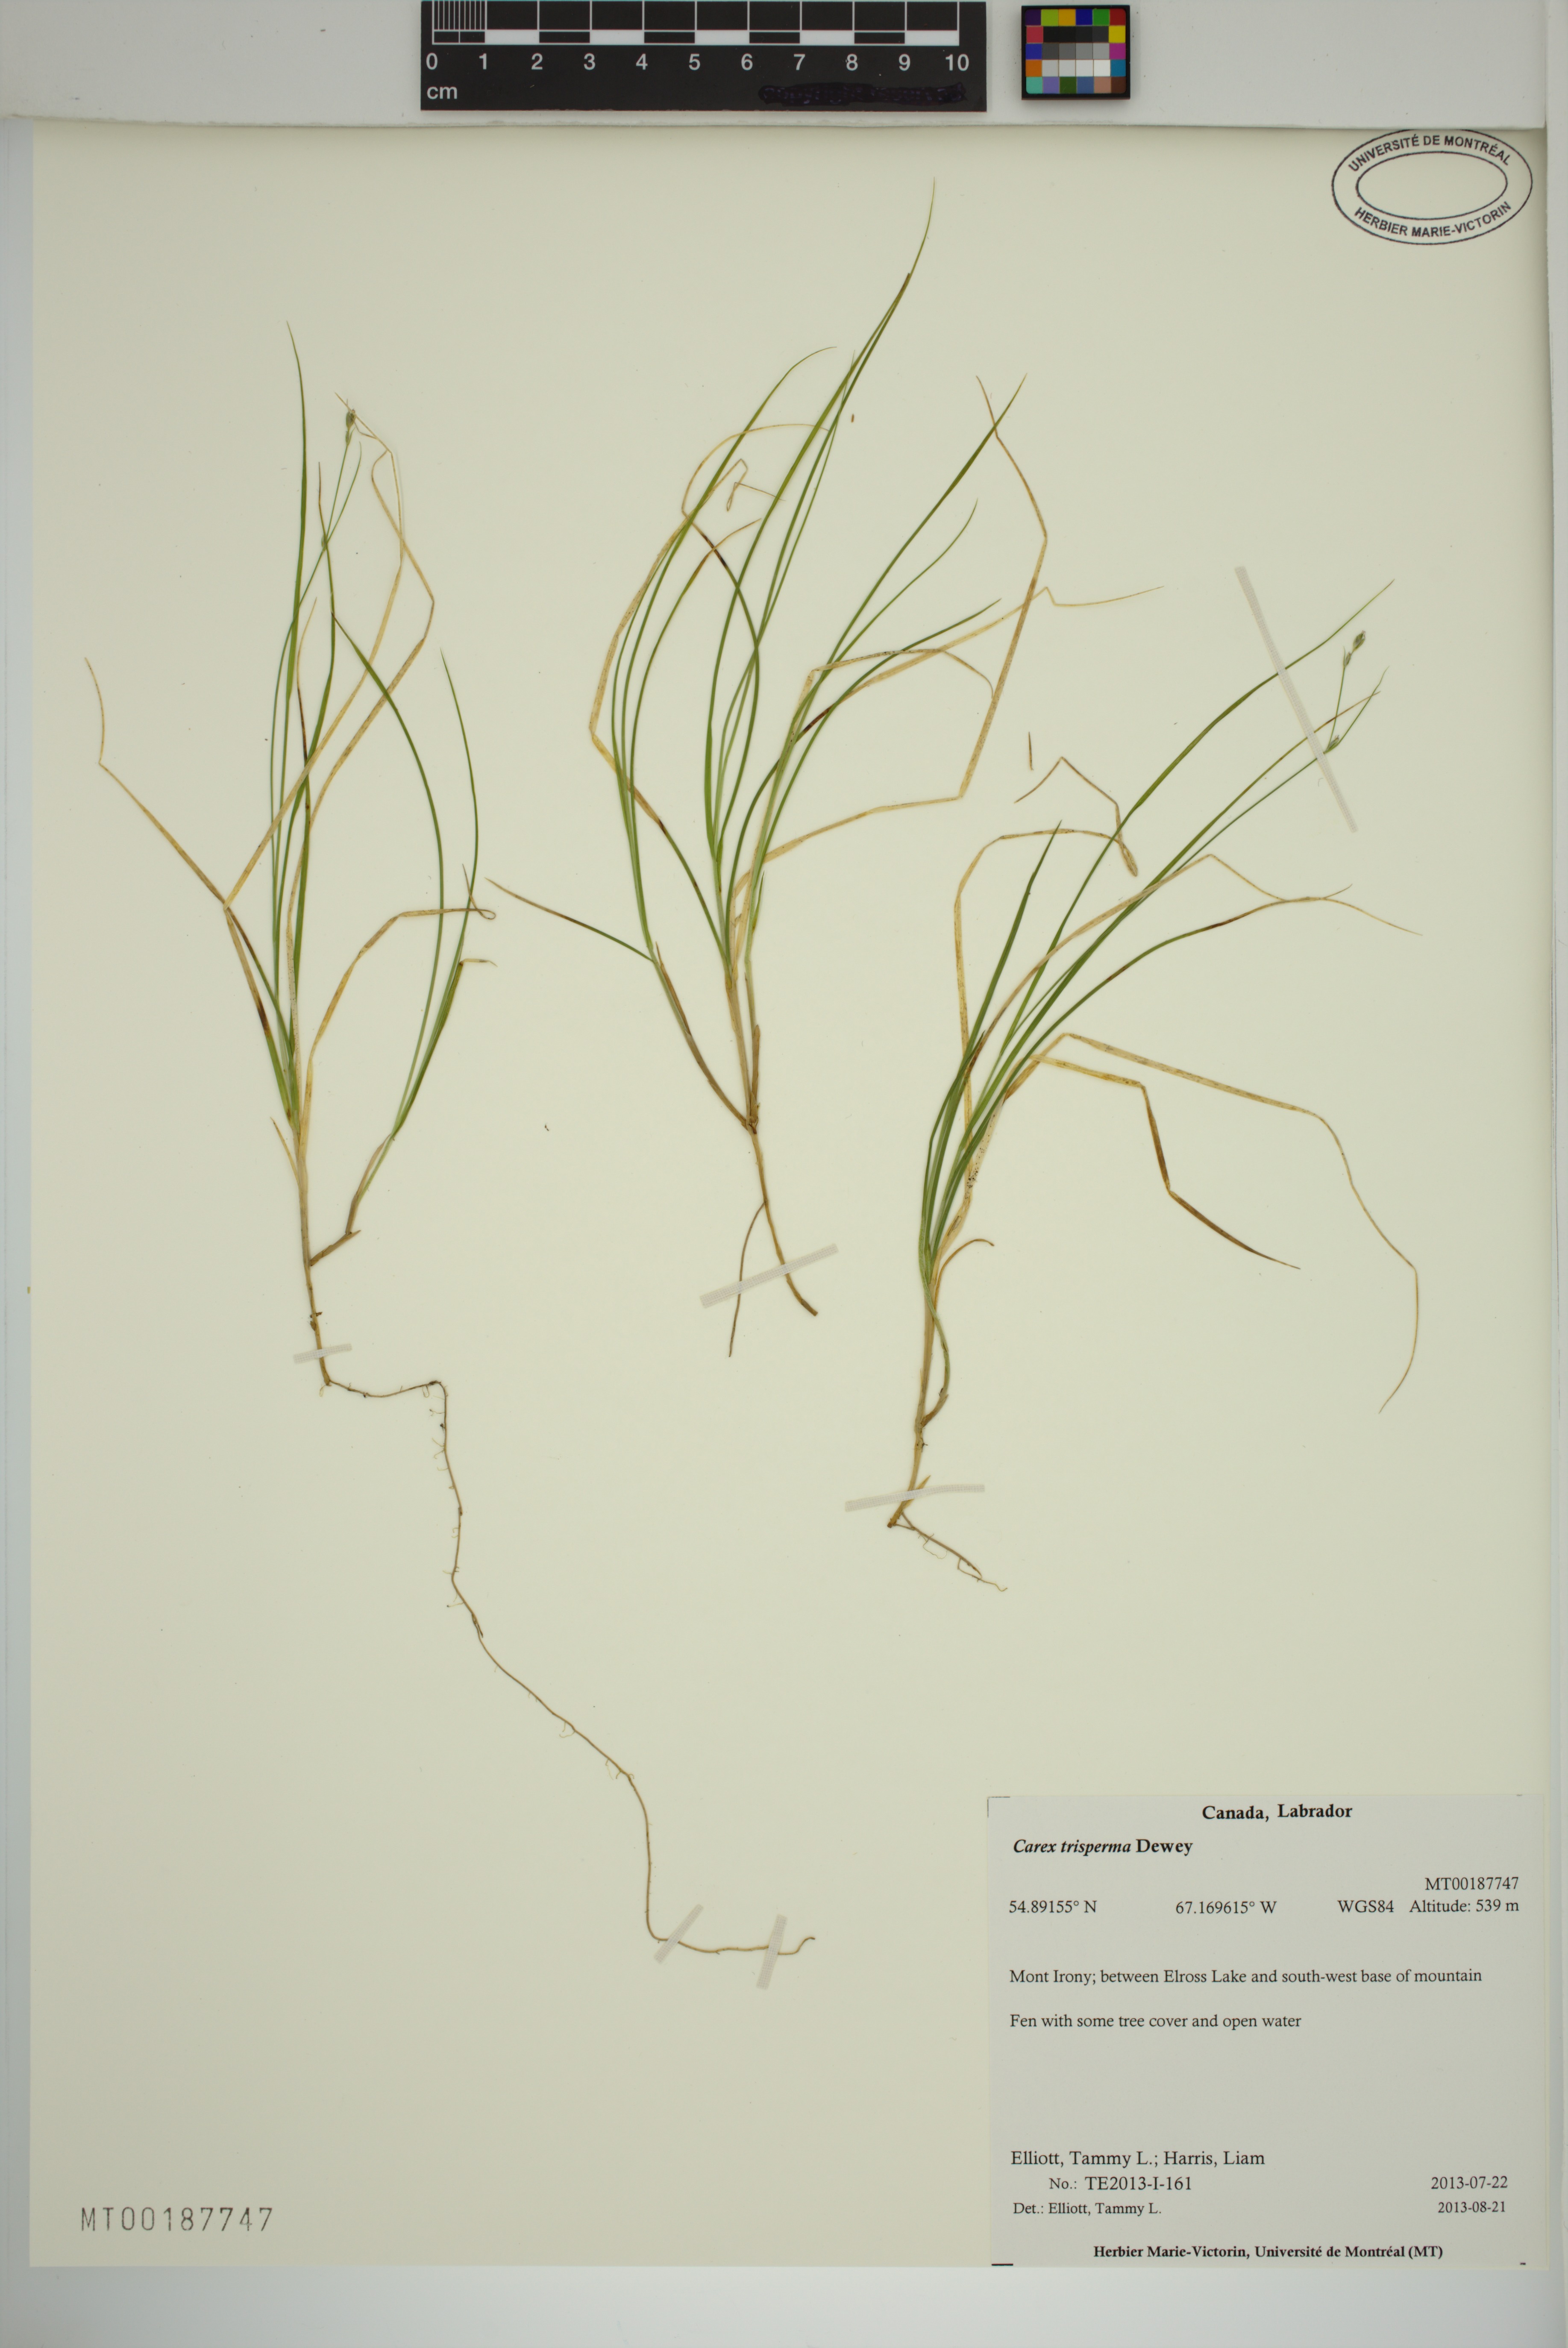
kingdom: Plantae
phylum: Tracheophyta
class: Liliopsida
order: Poales
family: Cyperaceae
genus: Carex
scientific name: Carex trisperma
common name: Three-seeded sedge
